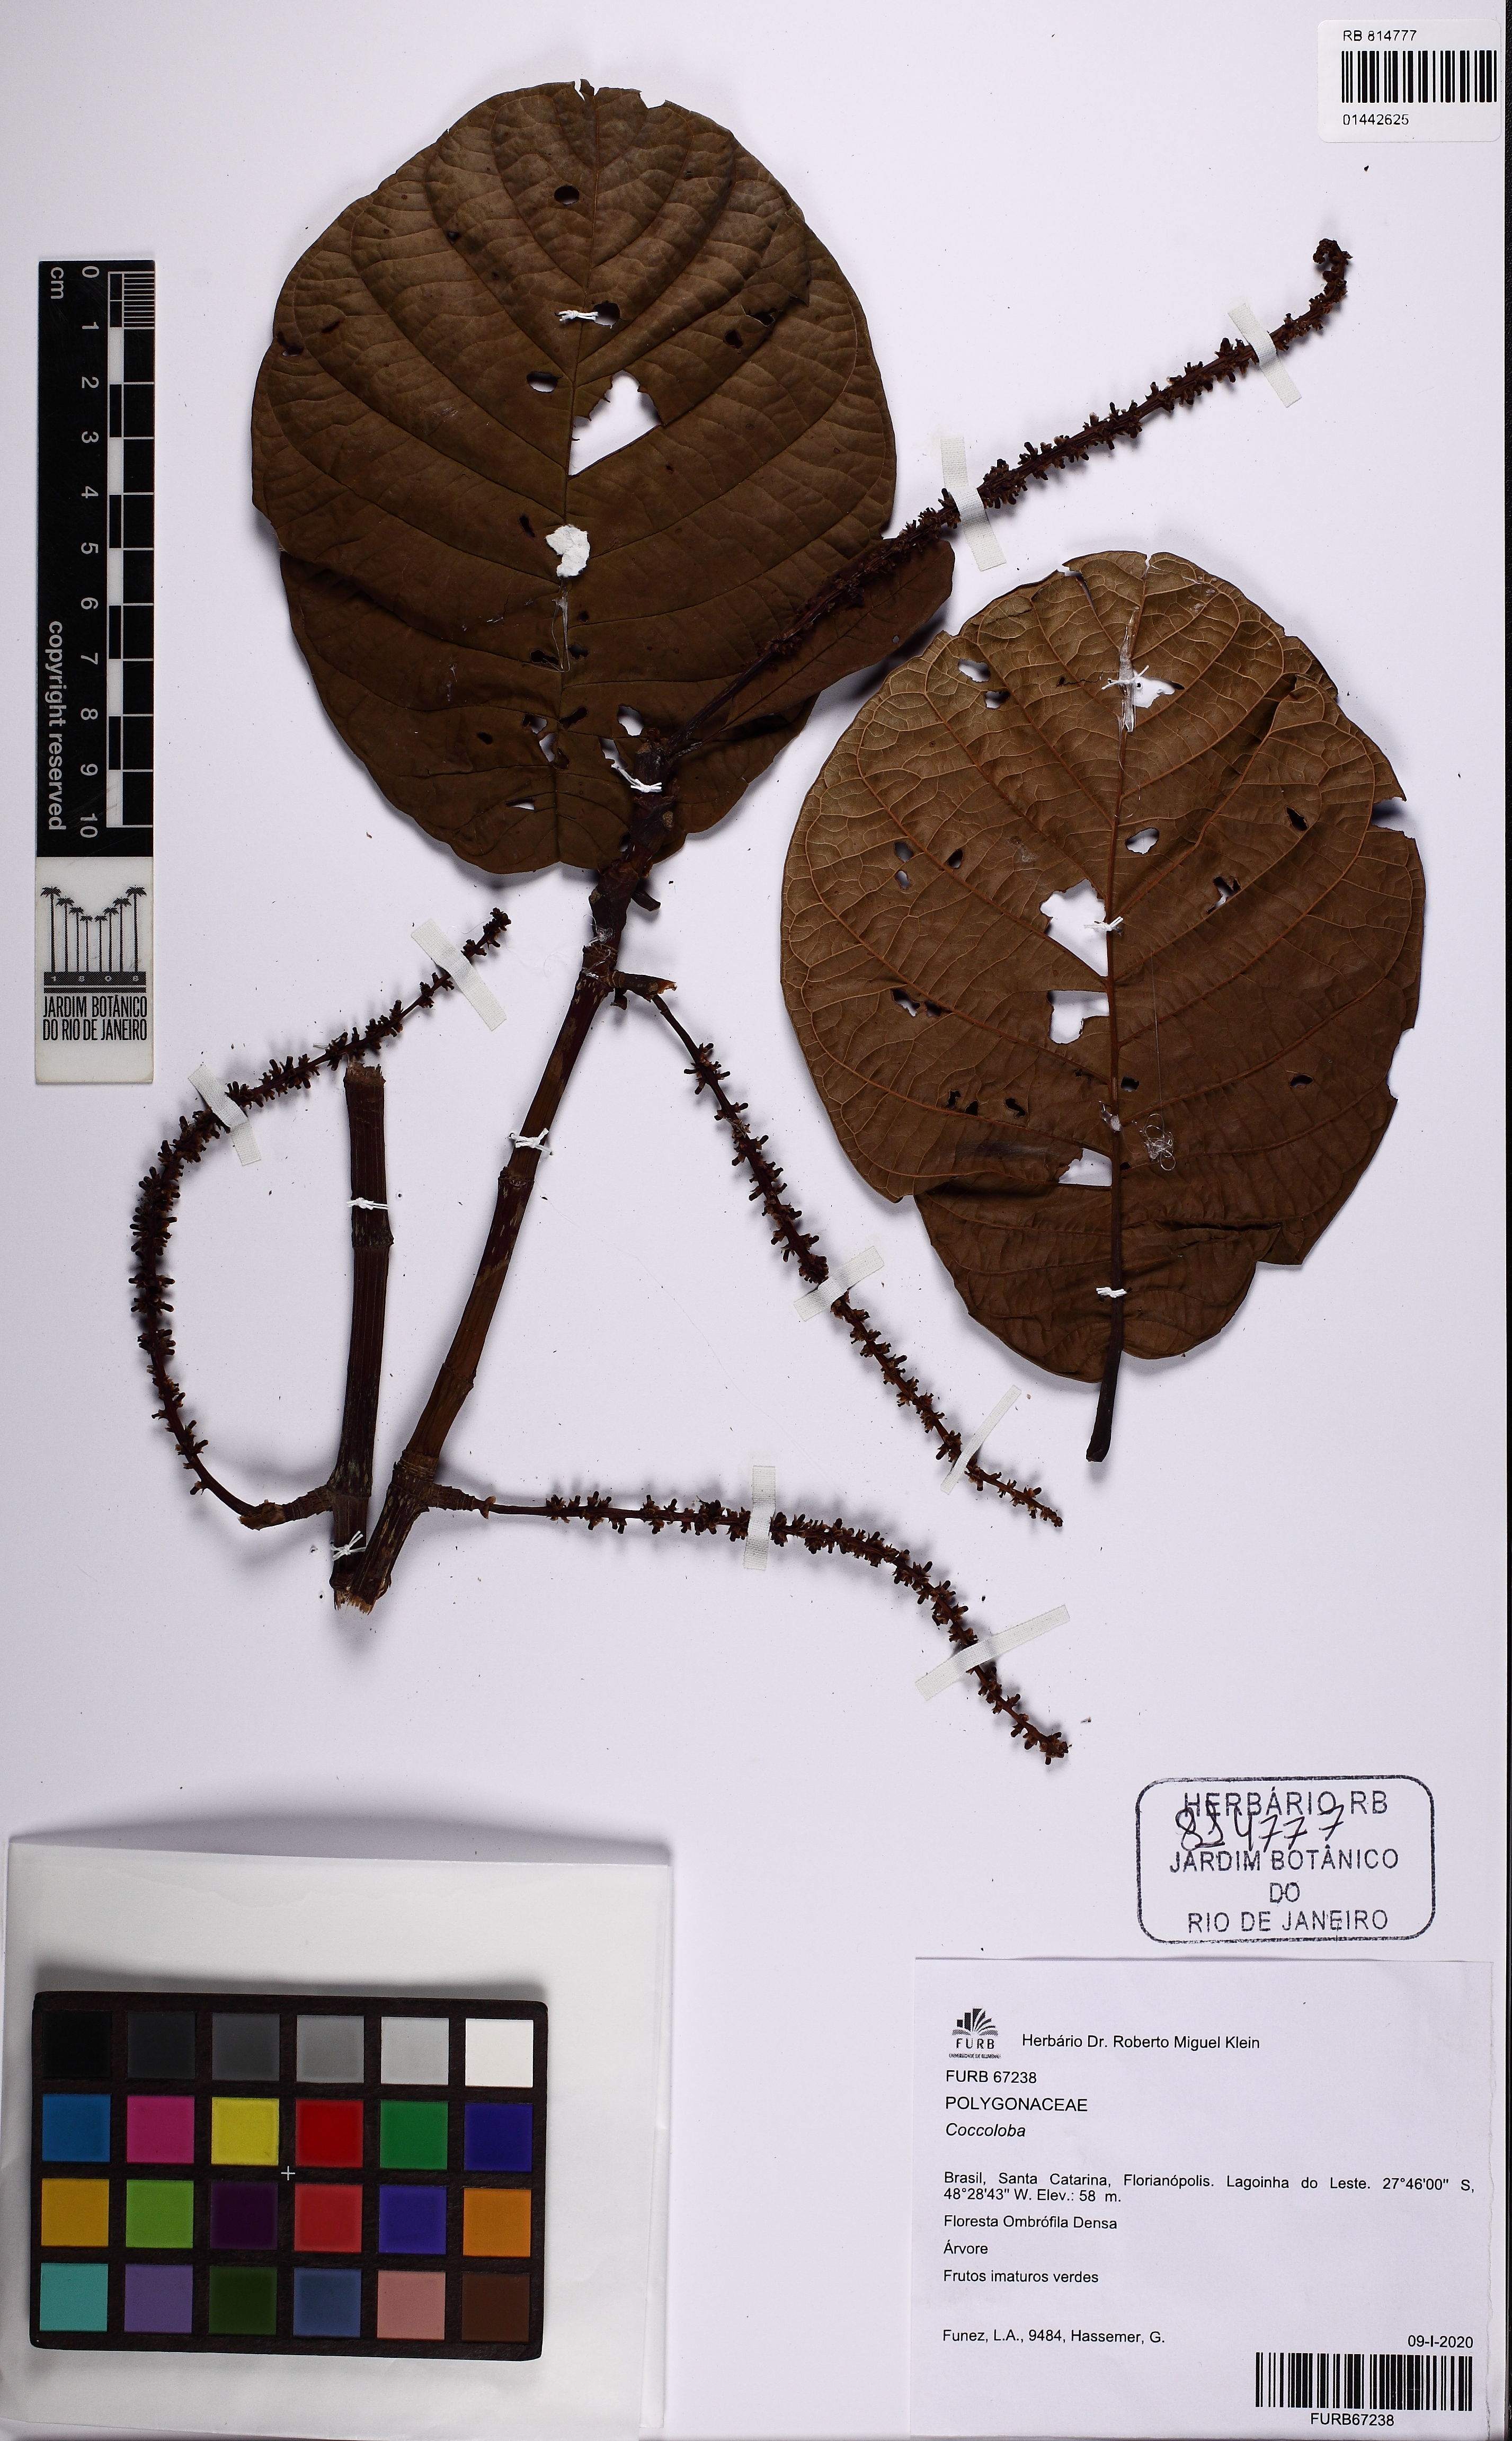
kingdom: Plantae
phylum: Tracheophyta
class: Magnoliopsida
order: Caryophyllales
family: Polygonaceae
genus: Coccoloba
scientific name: Coccoloba
